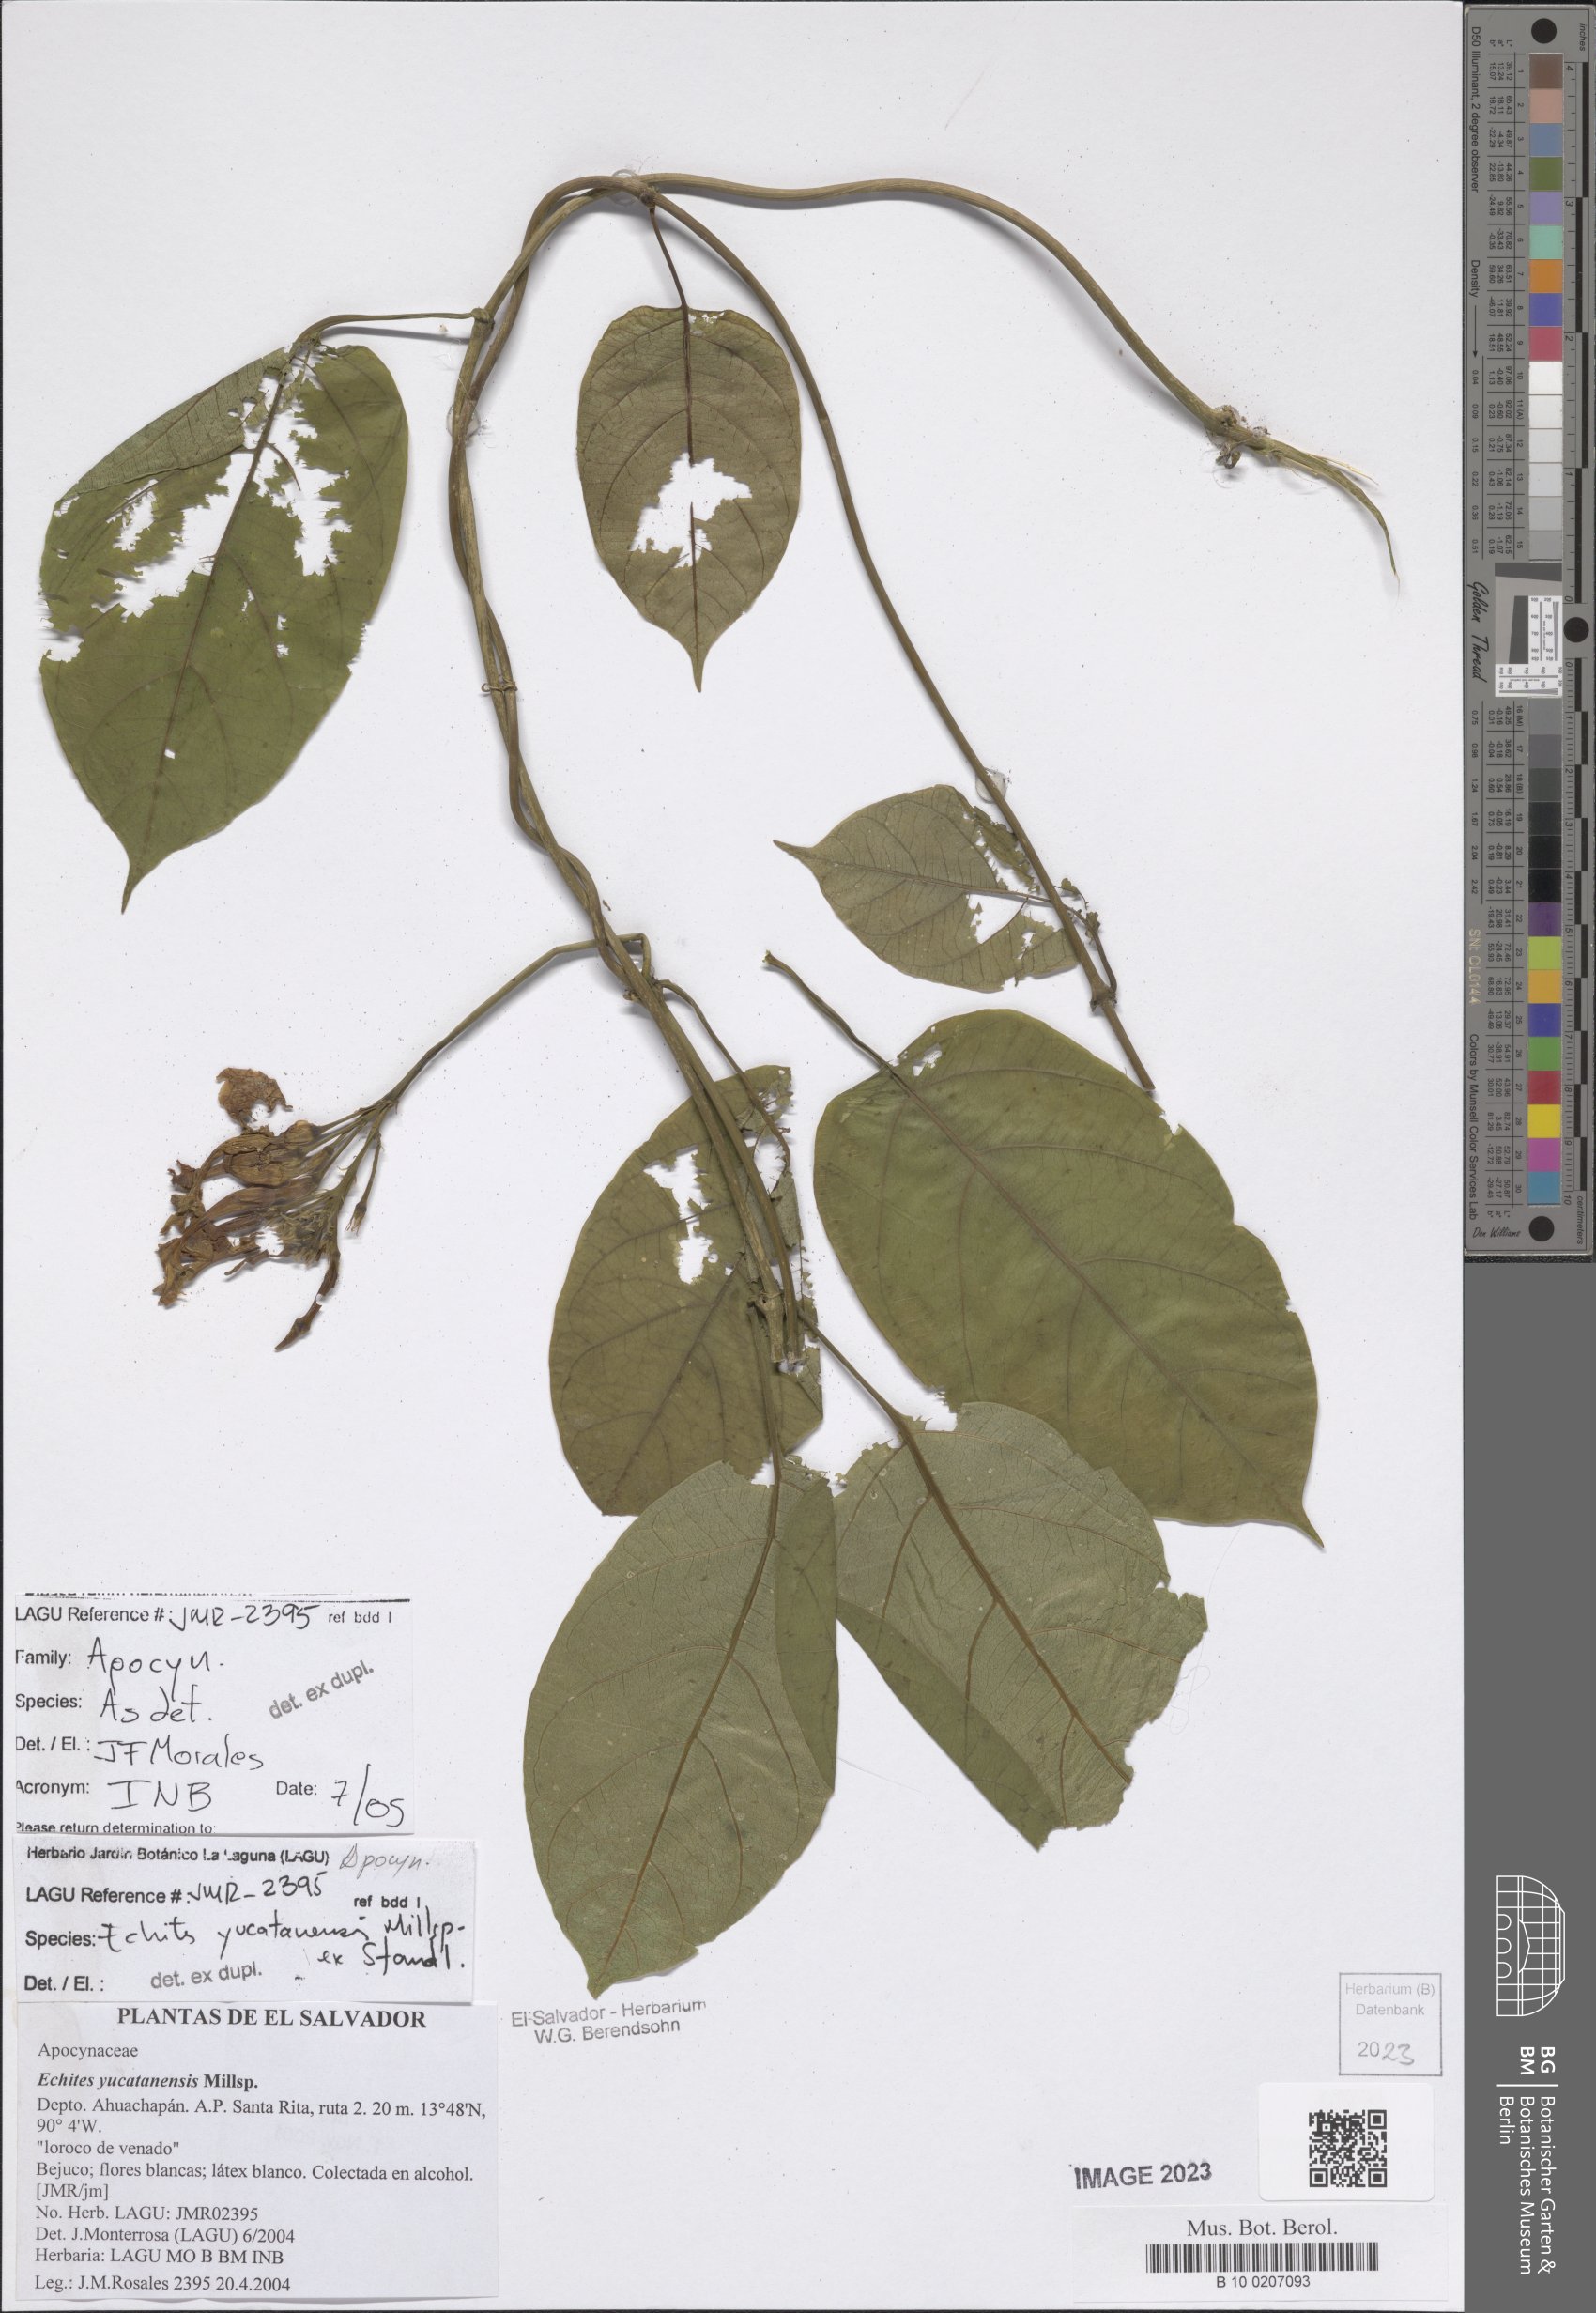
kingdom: Plantae
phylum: Tracheophyta
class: Magnoliopsida
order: Gentianales
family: Apocynaceae
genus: Echites
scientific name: Echites yucatanensis
